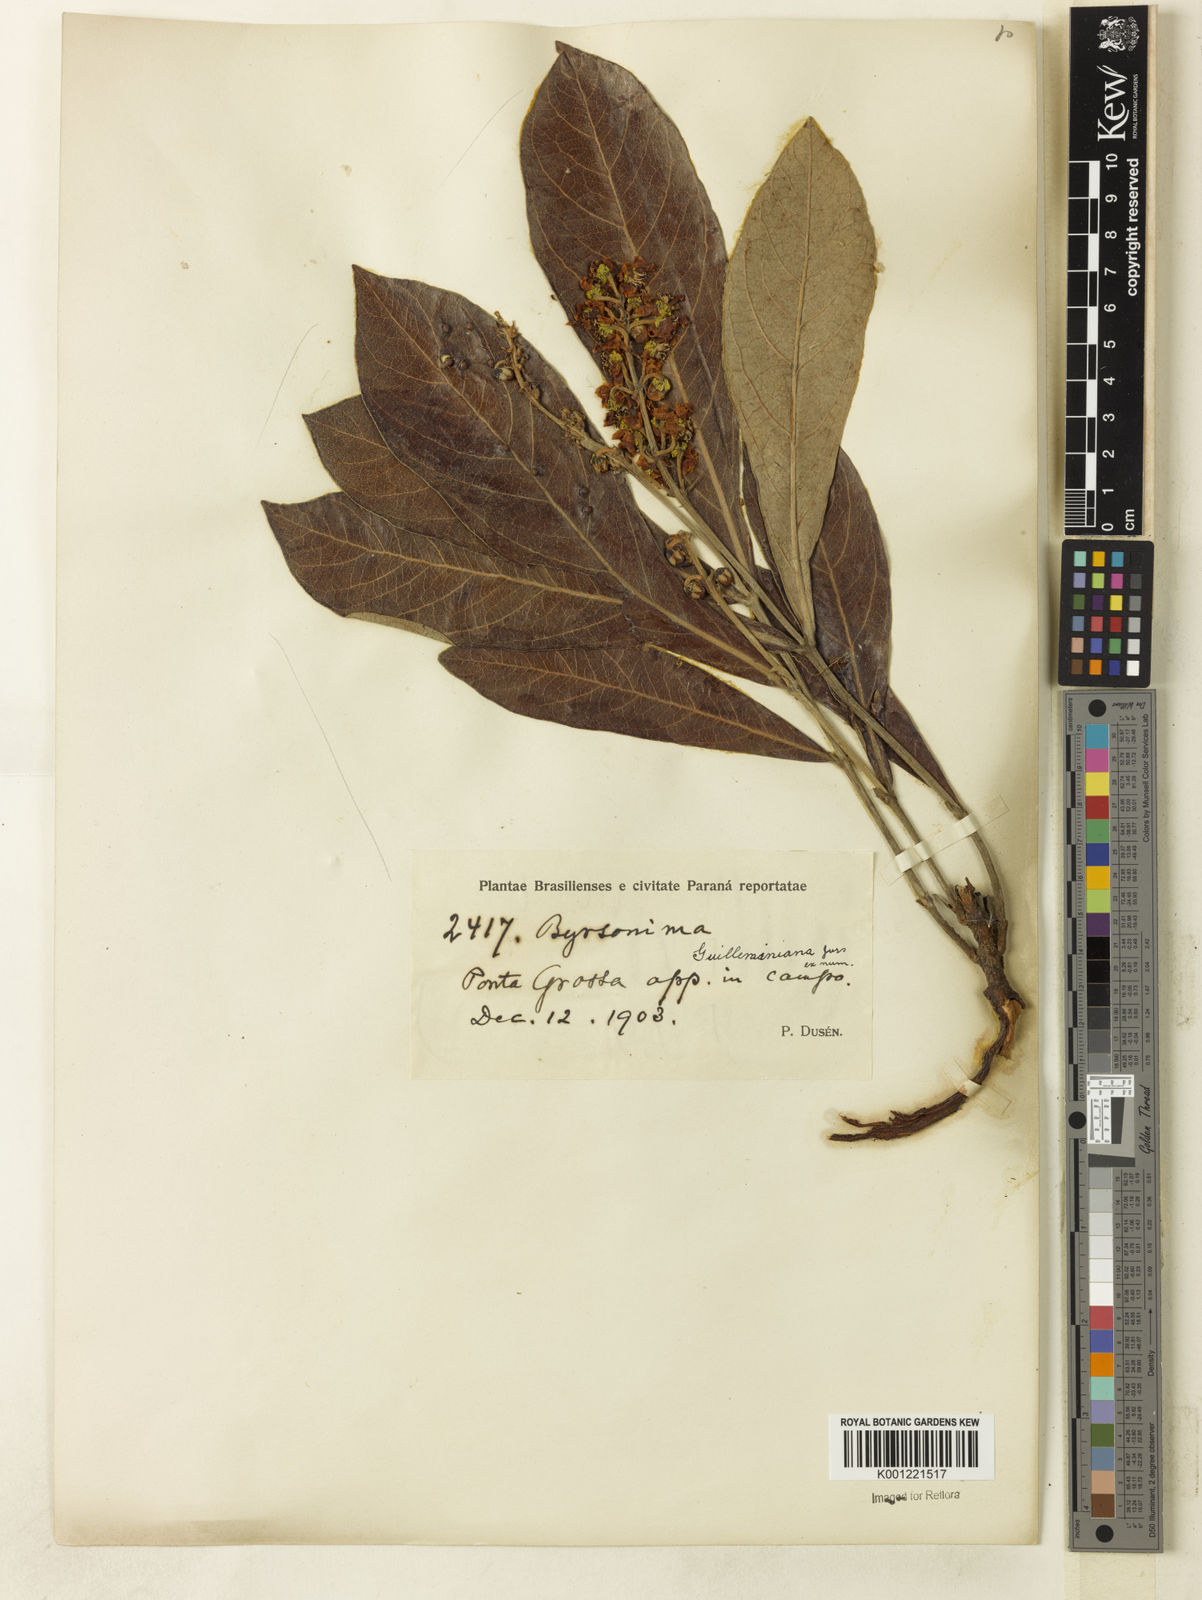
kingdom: Plantae
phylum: Tracheophyta
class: Magnoliopsida
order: Malpighiales
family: Malpighiaceae
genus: Byrsonima
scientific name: Byrsonima guilleminiana
